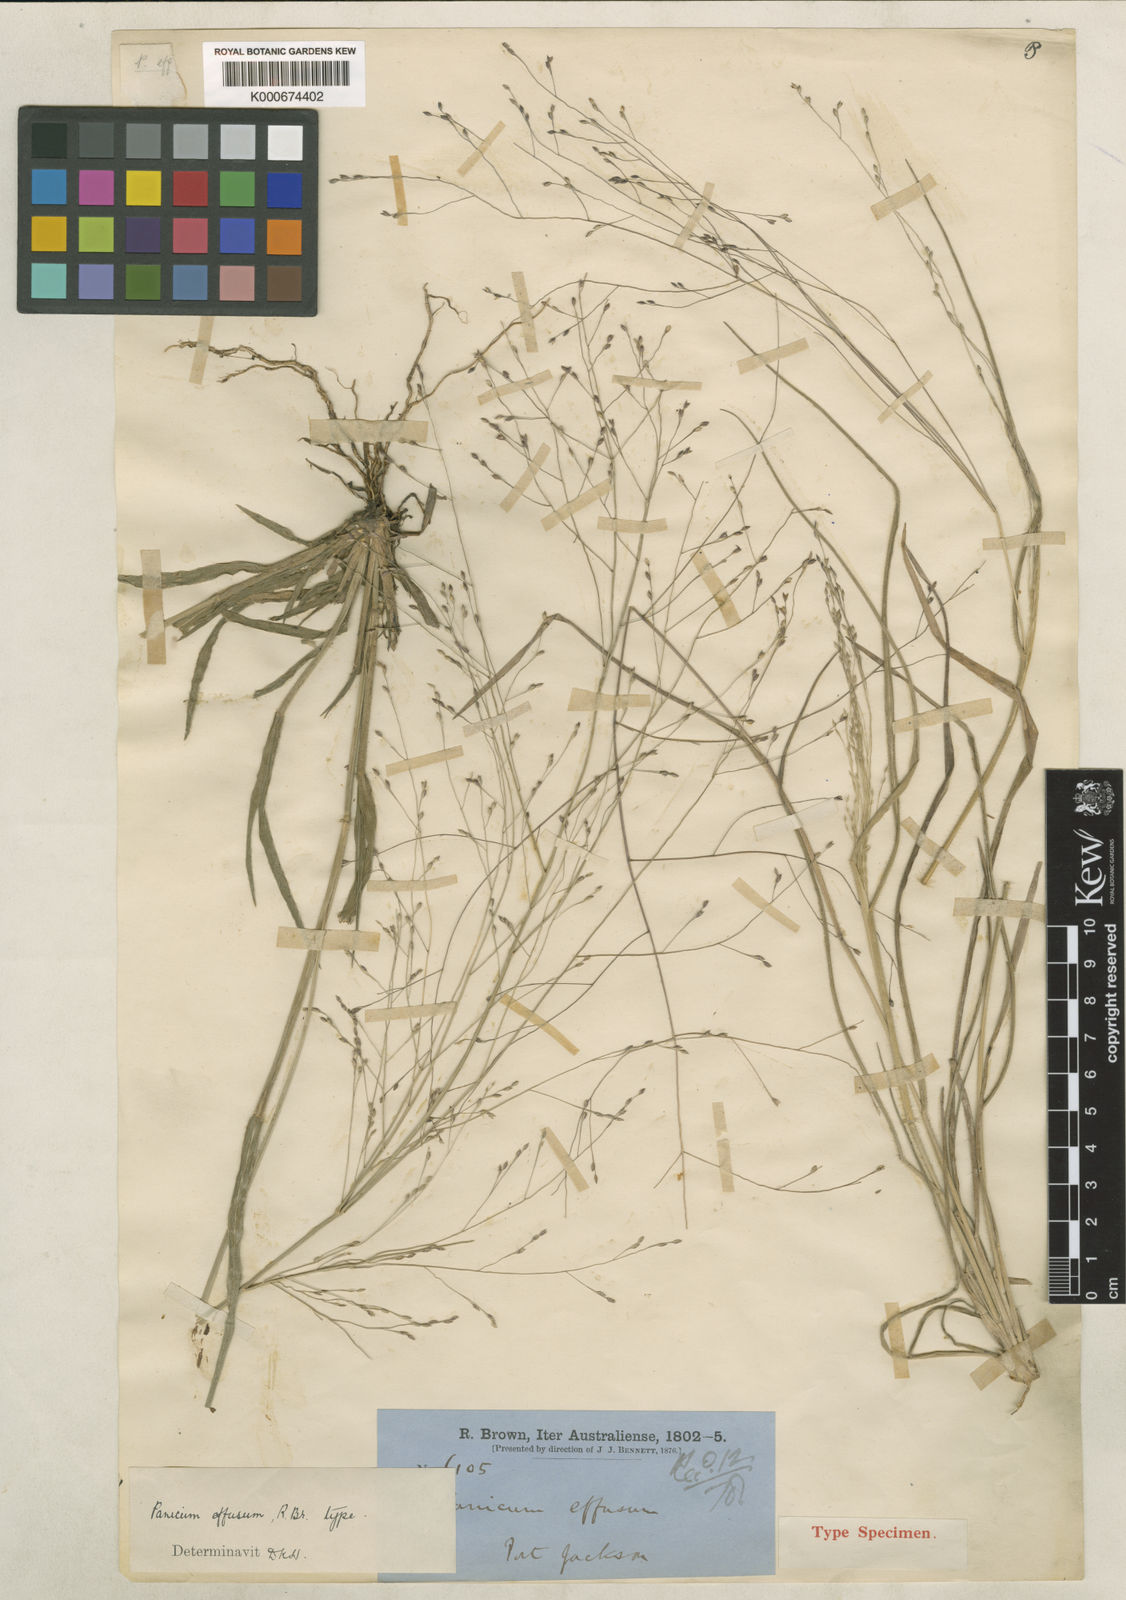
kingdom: Plantae
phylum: Tracheophyta
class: Liliopsida
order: Poales
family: Poaceae
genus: Panicum
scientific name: Panicum effusum
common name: Hairy panic grass
